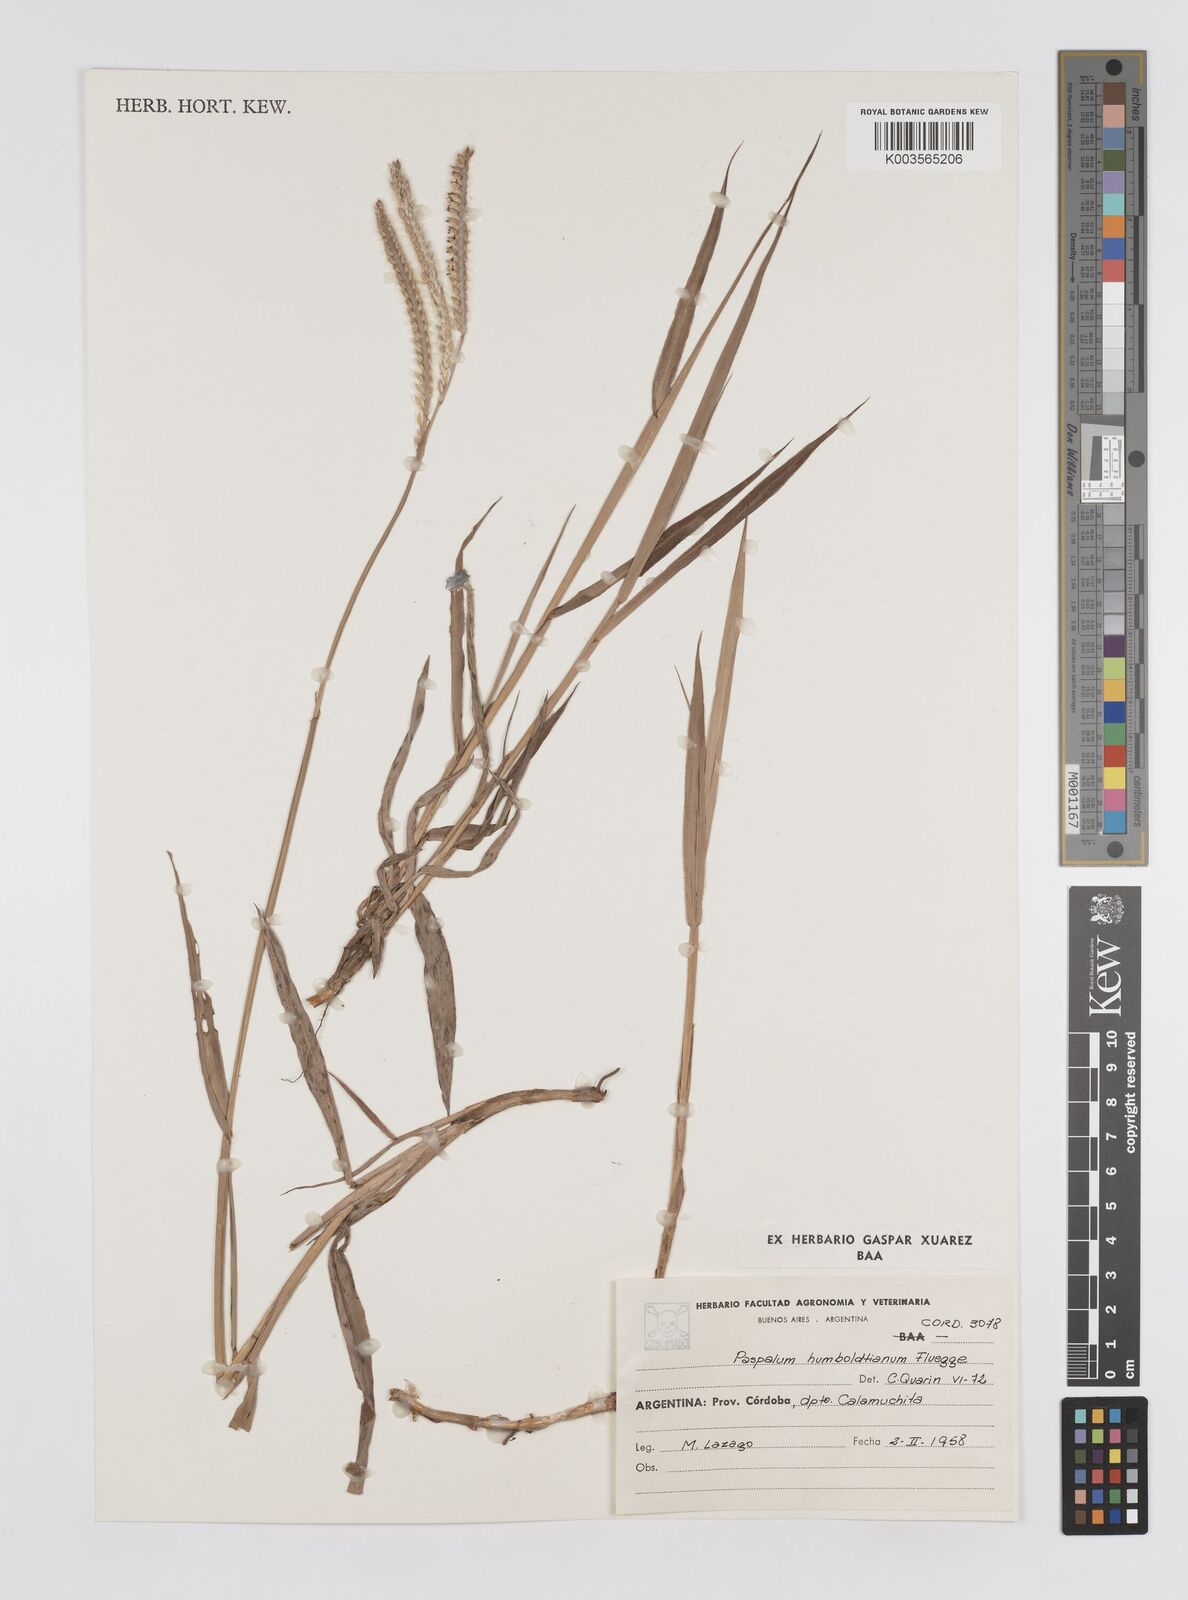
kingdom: Plantae
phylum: Tracheophyta
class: Liliopsida
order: Poales
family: Poaceae
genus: Paspalum
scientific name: Paspalum humboldtianum
